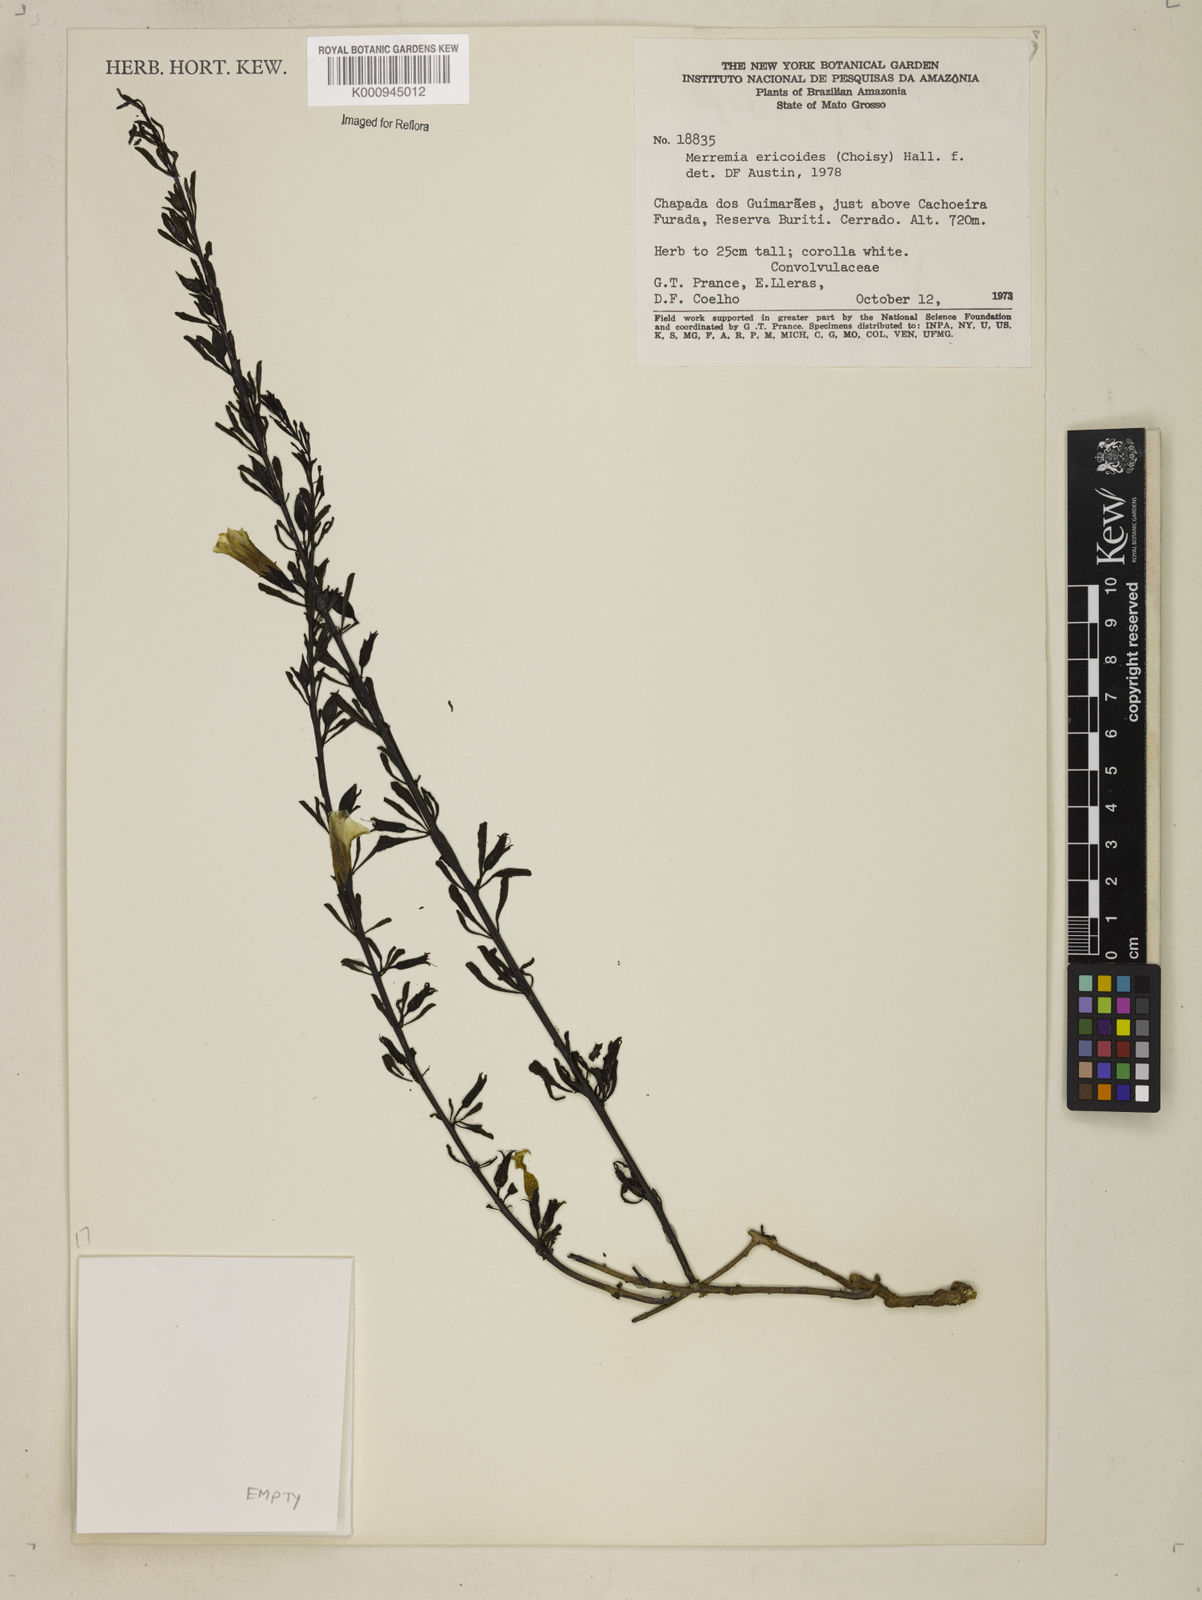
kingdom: Plantae
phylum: Tracheophyta
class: Magnoliopsida
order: Solanales
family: Convolvulaceae
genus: Distimake
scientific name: Distimake ericoides
